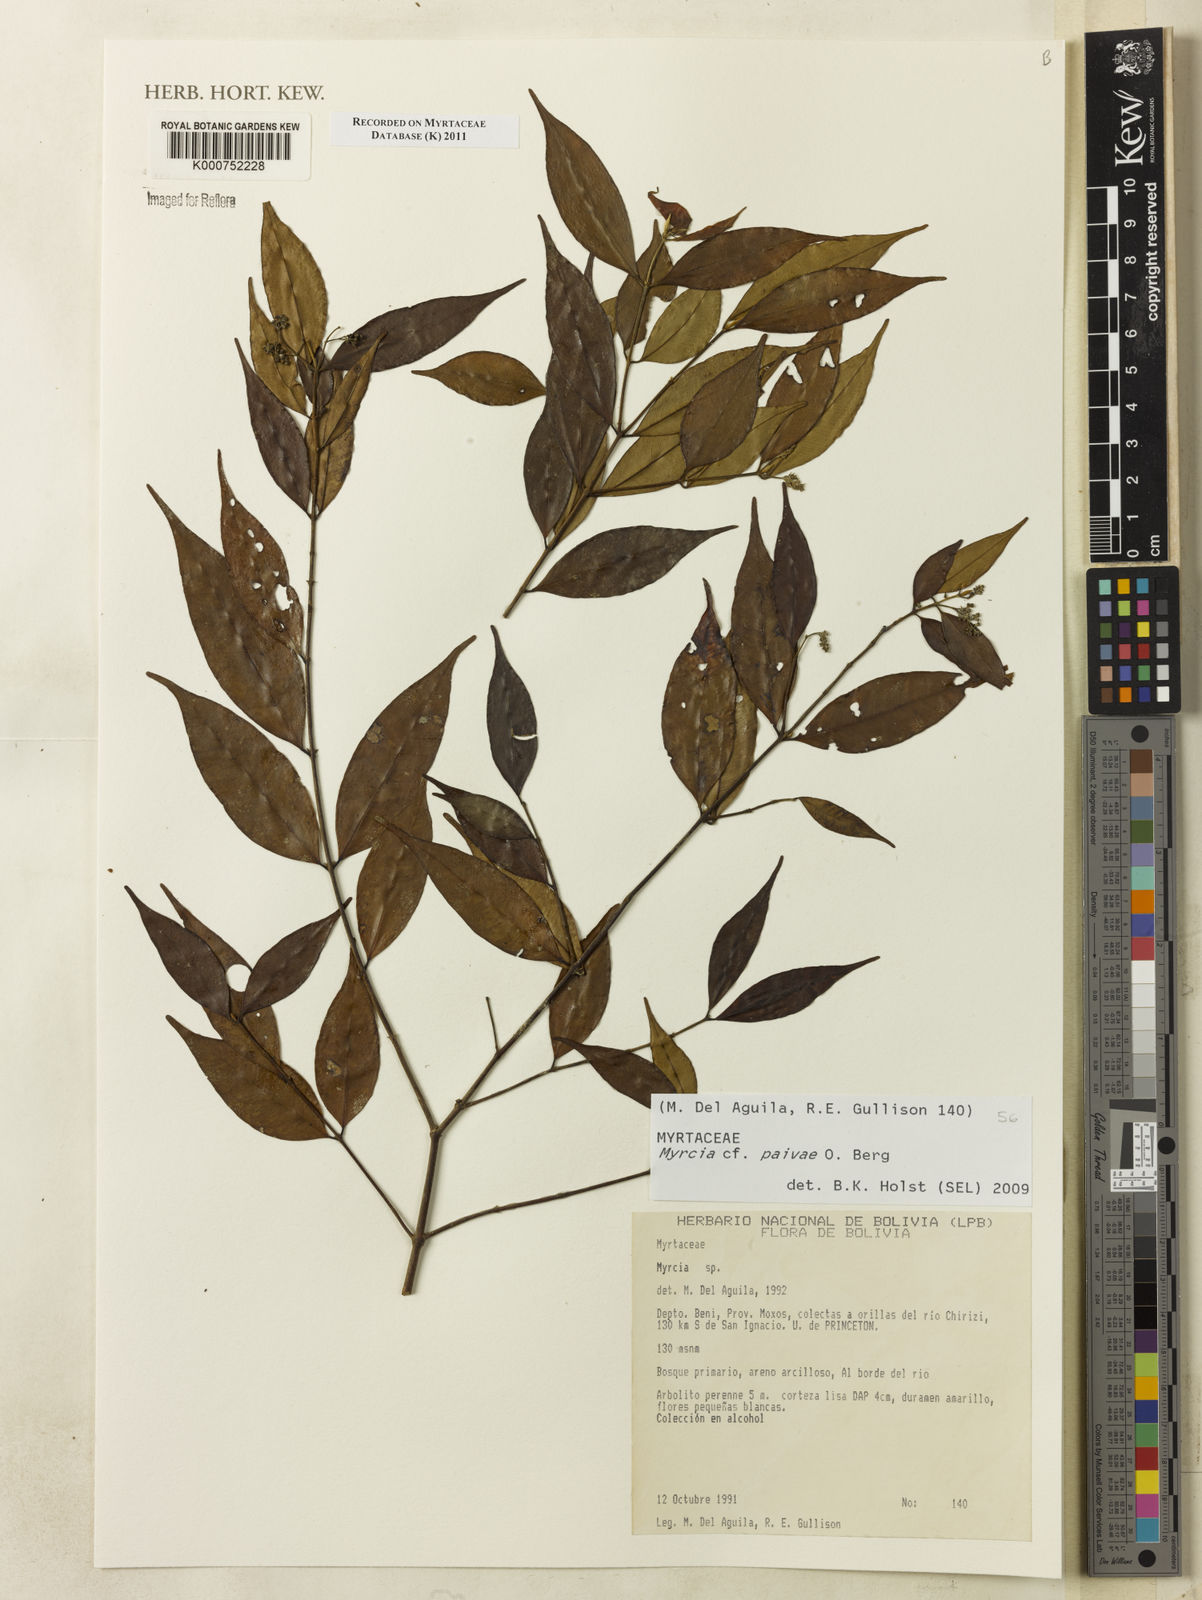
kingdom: Plantae
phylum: Tracheophyta
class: Magnoliopsida
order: Myrtales
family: Myrtaceae
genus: Myrcia
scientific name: Myrcia paivae
